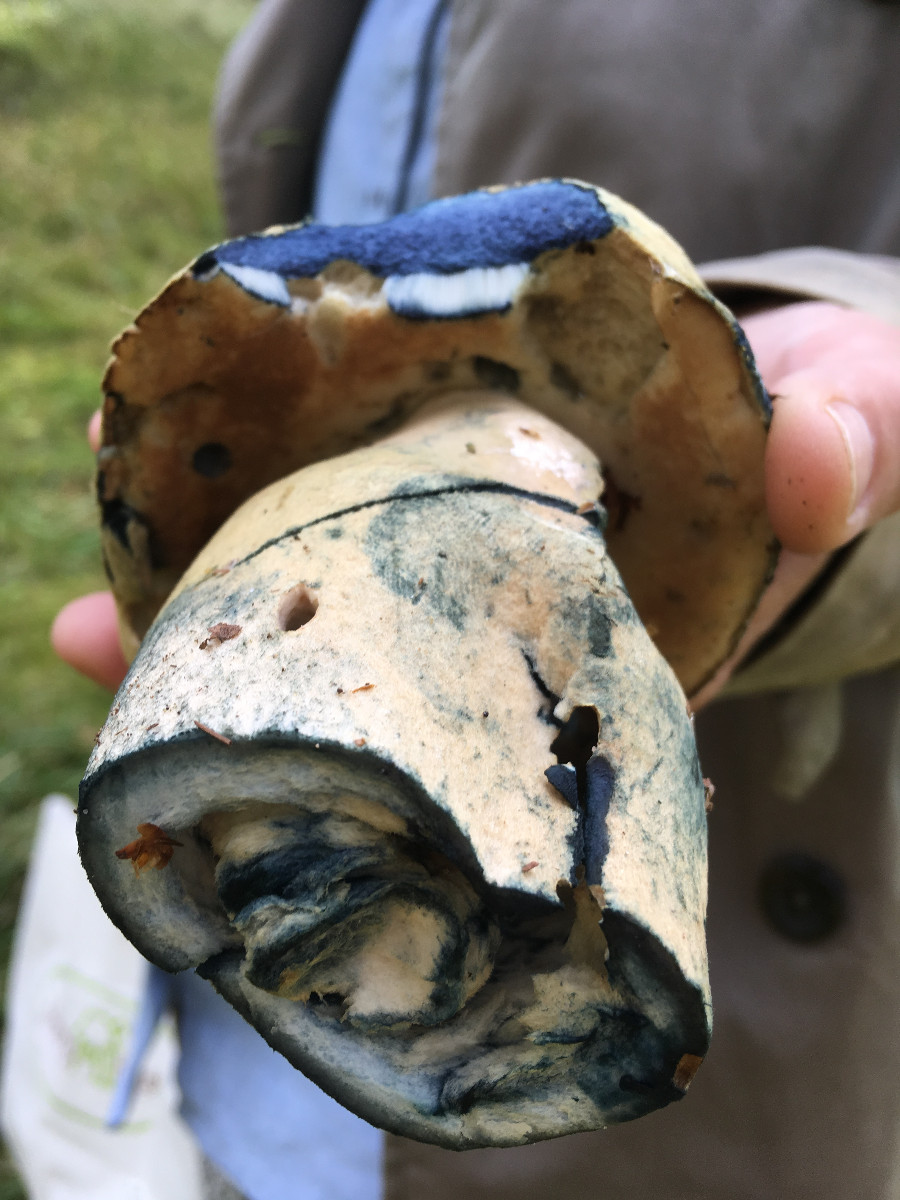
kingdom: Fungi
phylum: Basidiomycota
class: Agaricomycetes
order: Boletales
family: Gyroporaceae
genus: Gyroporus
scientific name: Gyroporus cyanescens
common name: blånende kammerrørhat
